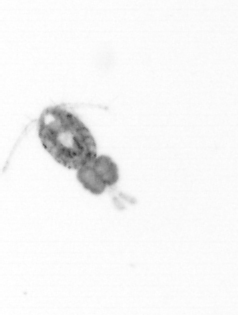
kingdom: Animalia
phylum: Arthropoda
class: Copepoda
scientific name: Copepoda
